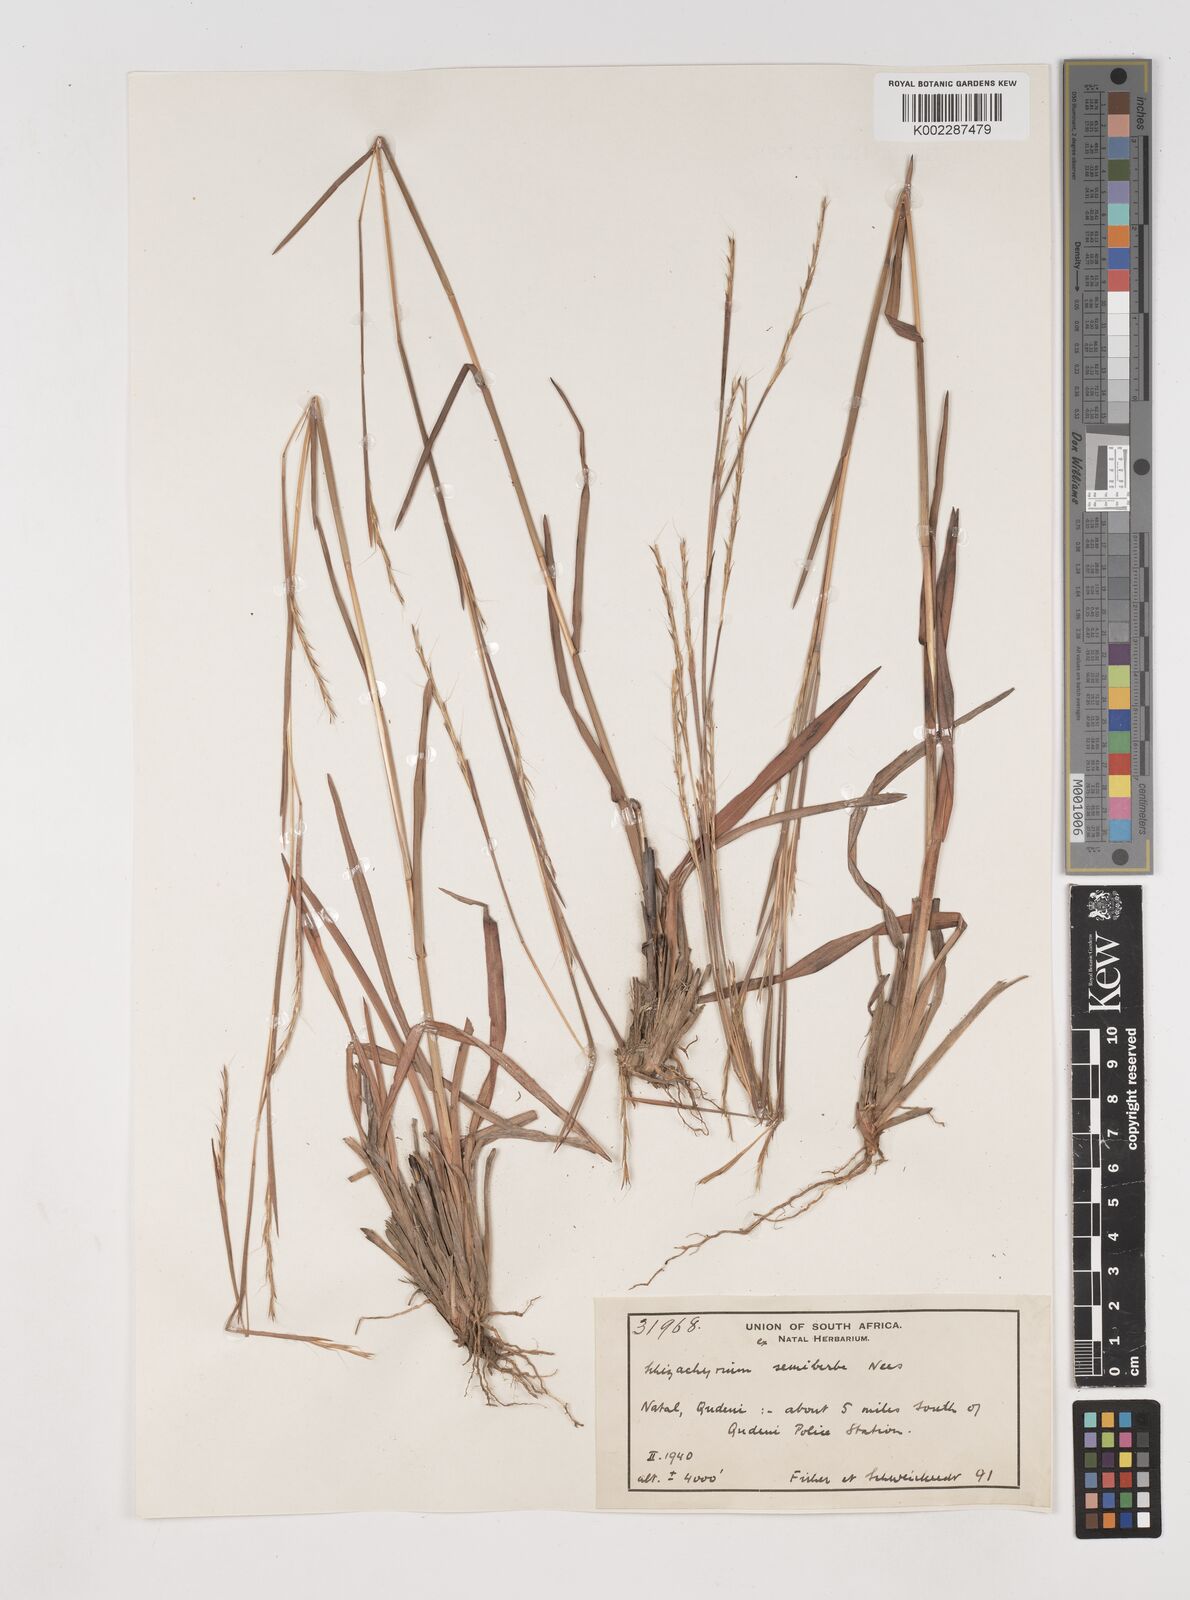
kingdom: Plantae
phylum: Tracheophyta
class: Liliopsida
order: Poales
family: Poaceae
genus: Schizachyrium
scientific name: Schizachyrium sanguineum
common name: Crimson bluestem
